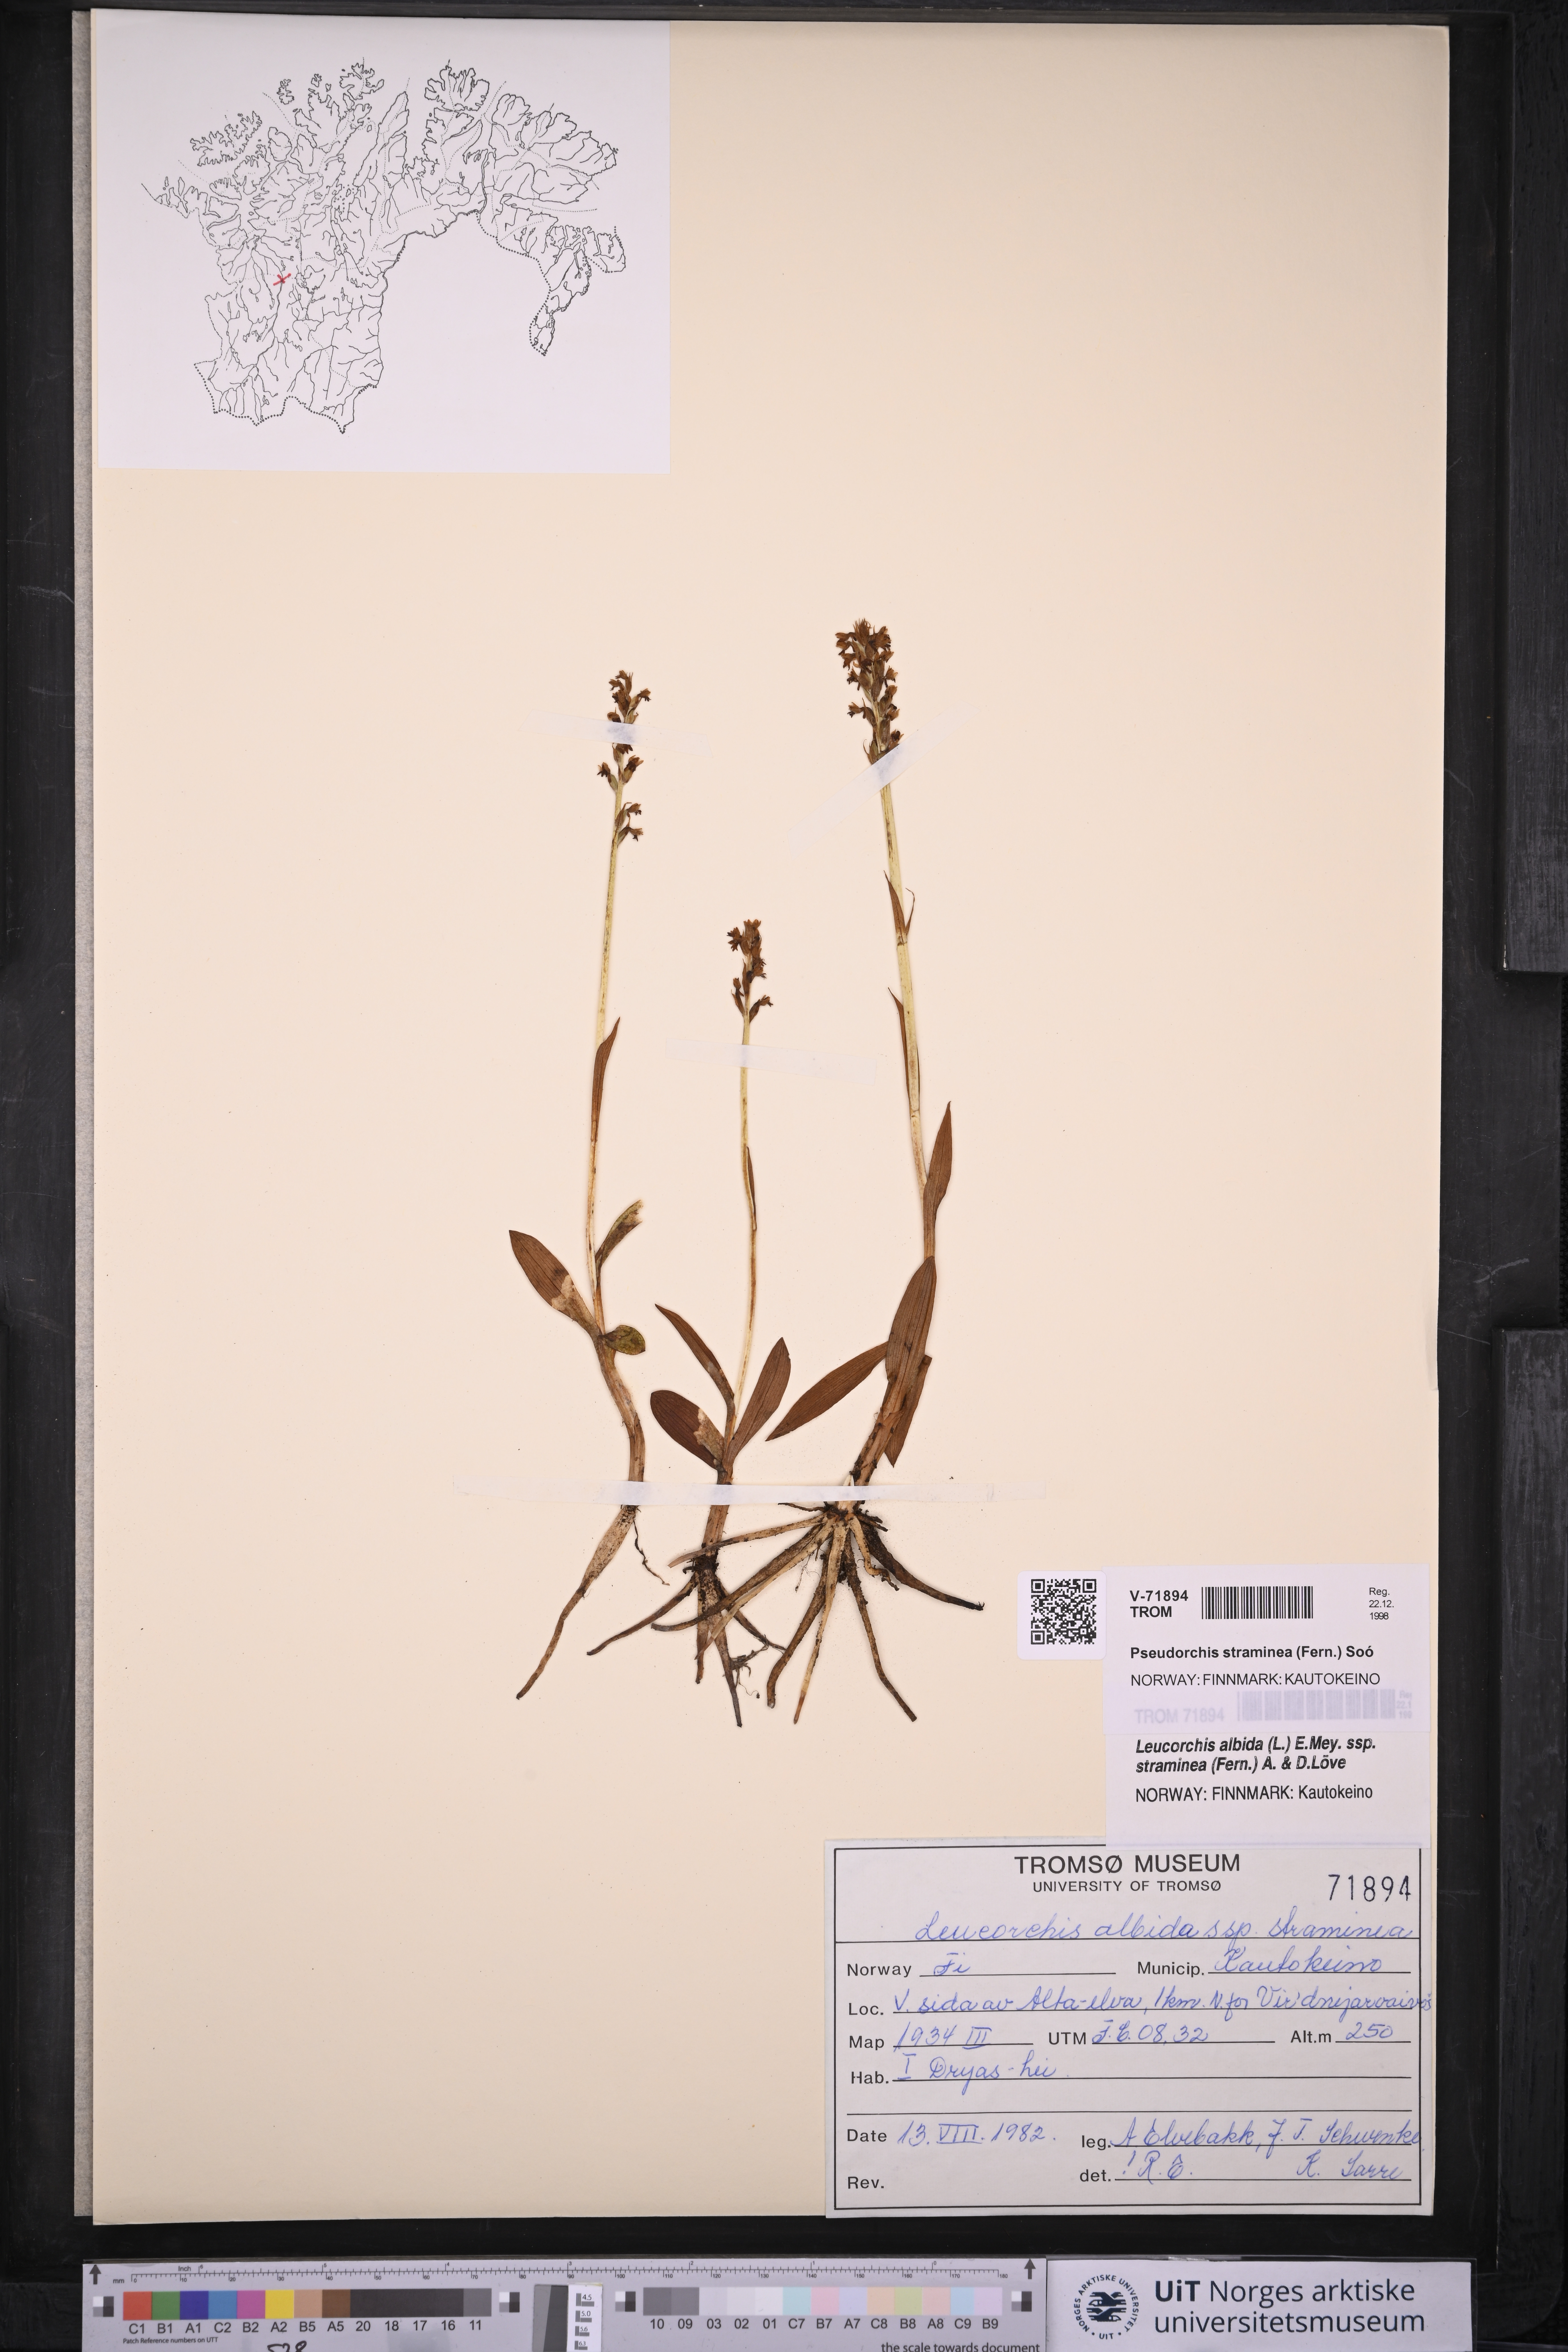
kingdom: Plantae
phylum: Tracheophyta
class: Liliopsida
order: Asparagales
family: Orchidaceae
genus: Pseudorchis
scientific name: Pseudorchis straminea
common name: Vanilla-scented bog orchid
